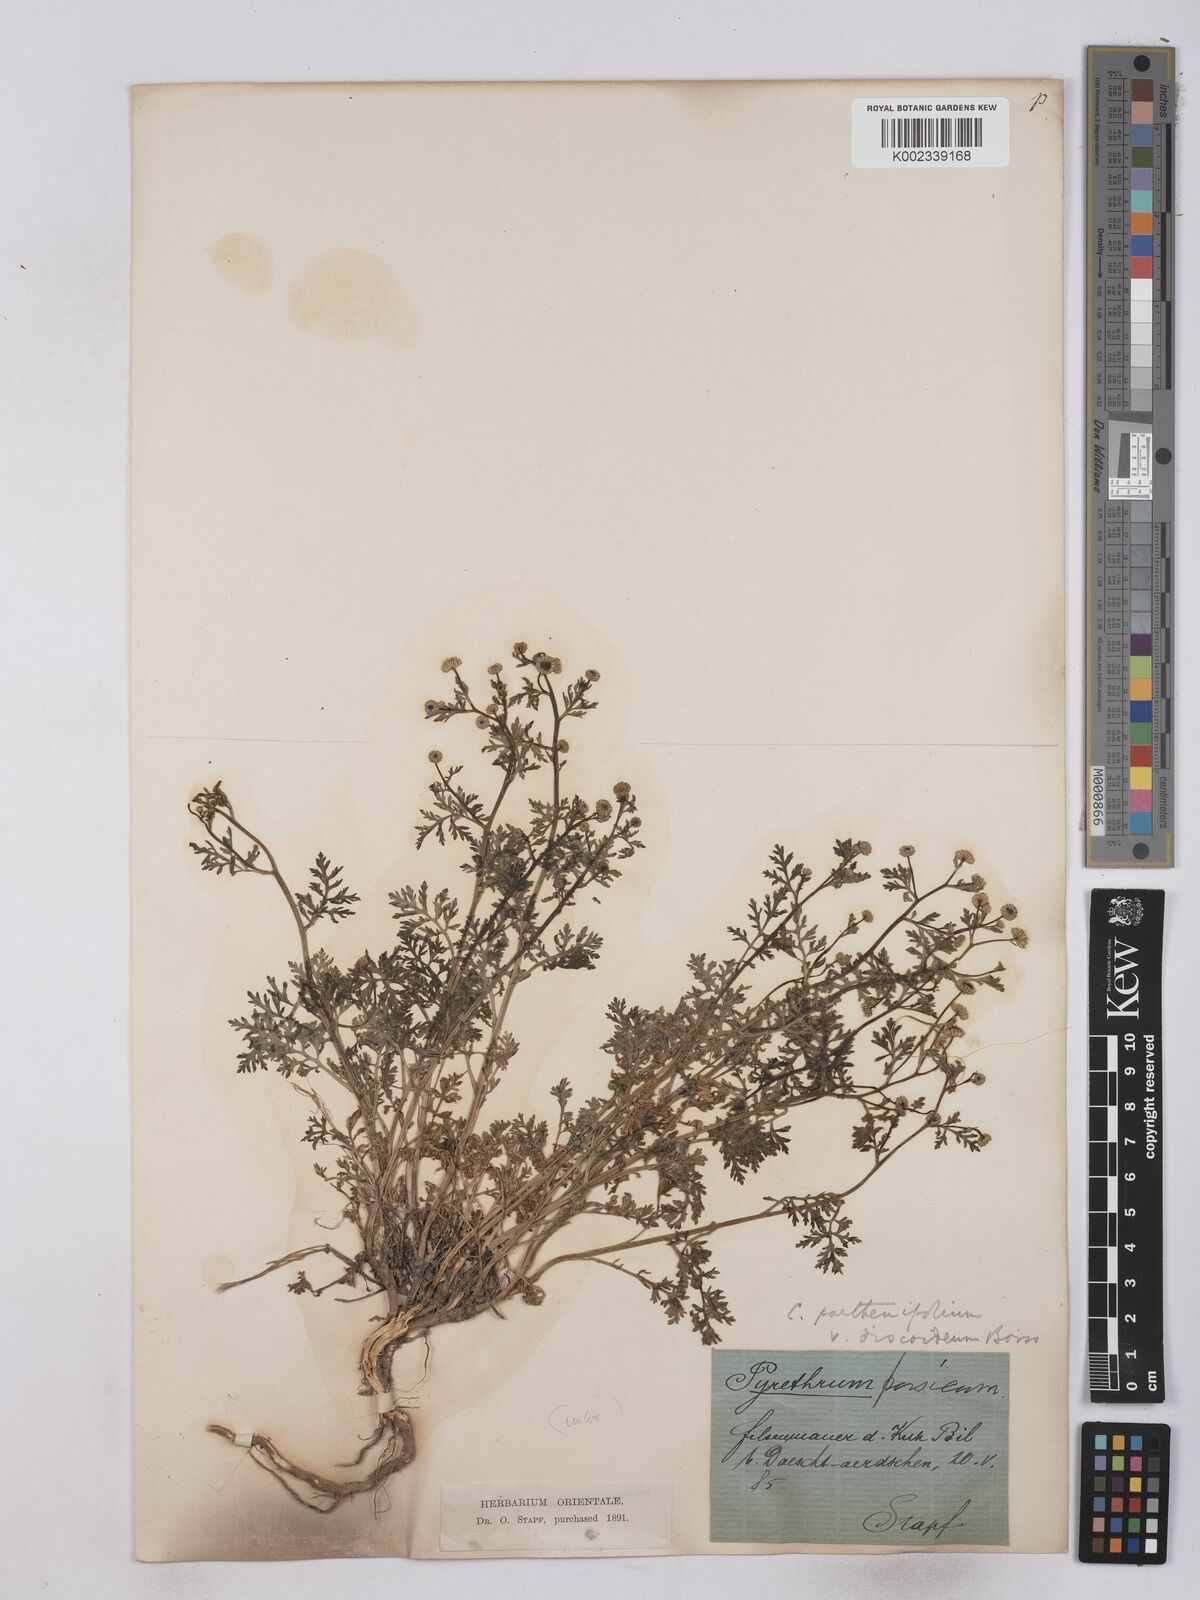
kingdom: Plantae
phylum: Tracheophyta
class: Magnoliopsida
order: Asterales
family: Asteraceae
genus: Tanacetum
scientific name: Tanacetum partheniifolium
